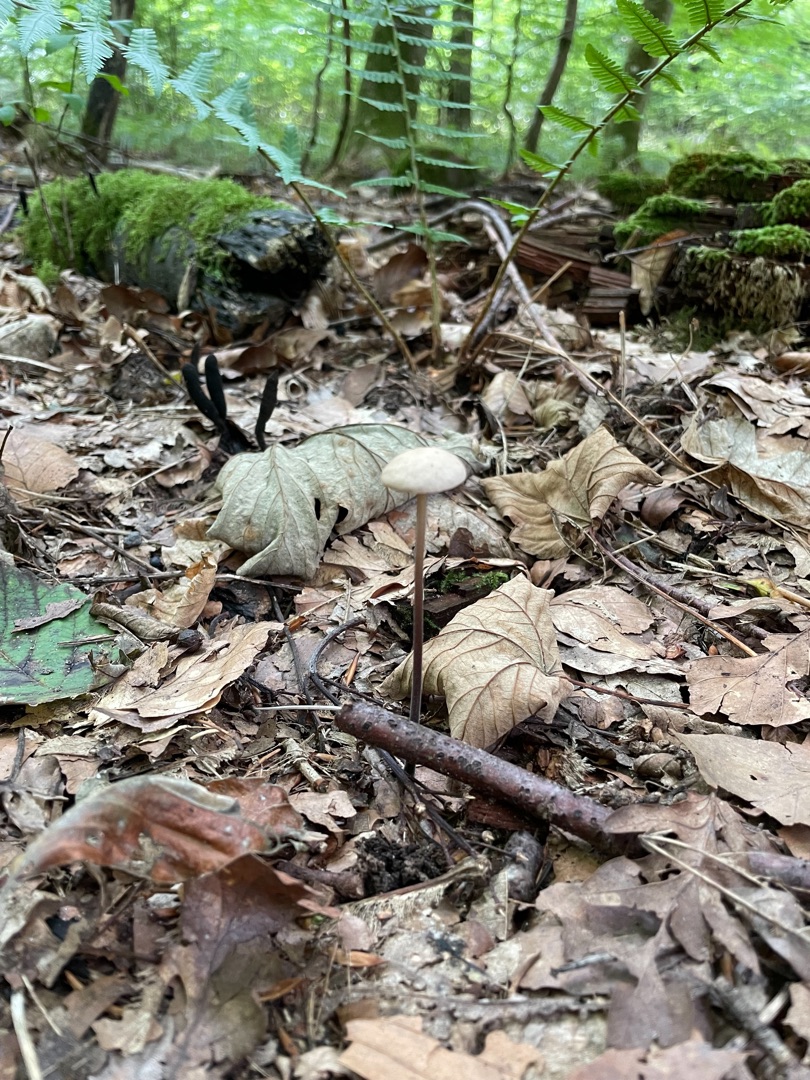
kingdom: Fungi
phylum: Basidiomycota
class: Agaricomycetes
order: Agaricales
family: Omphalotaceae
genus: Mycetinis
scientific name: Mycetinis alliaceus
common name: Stor løghat
